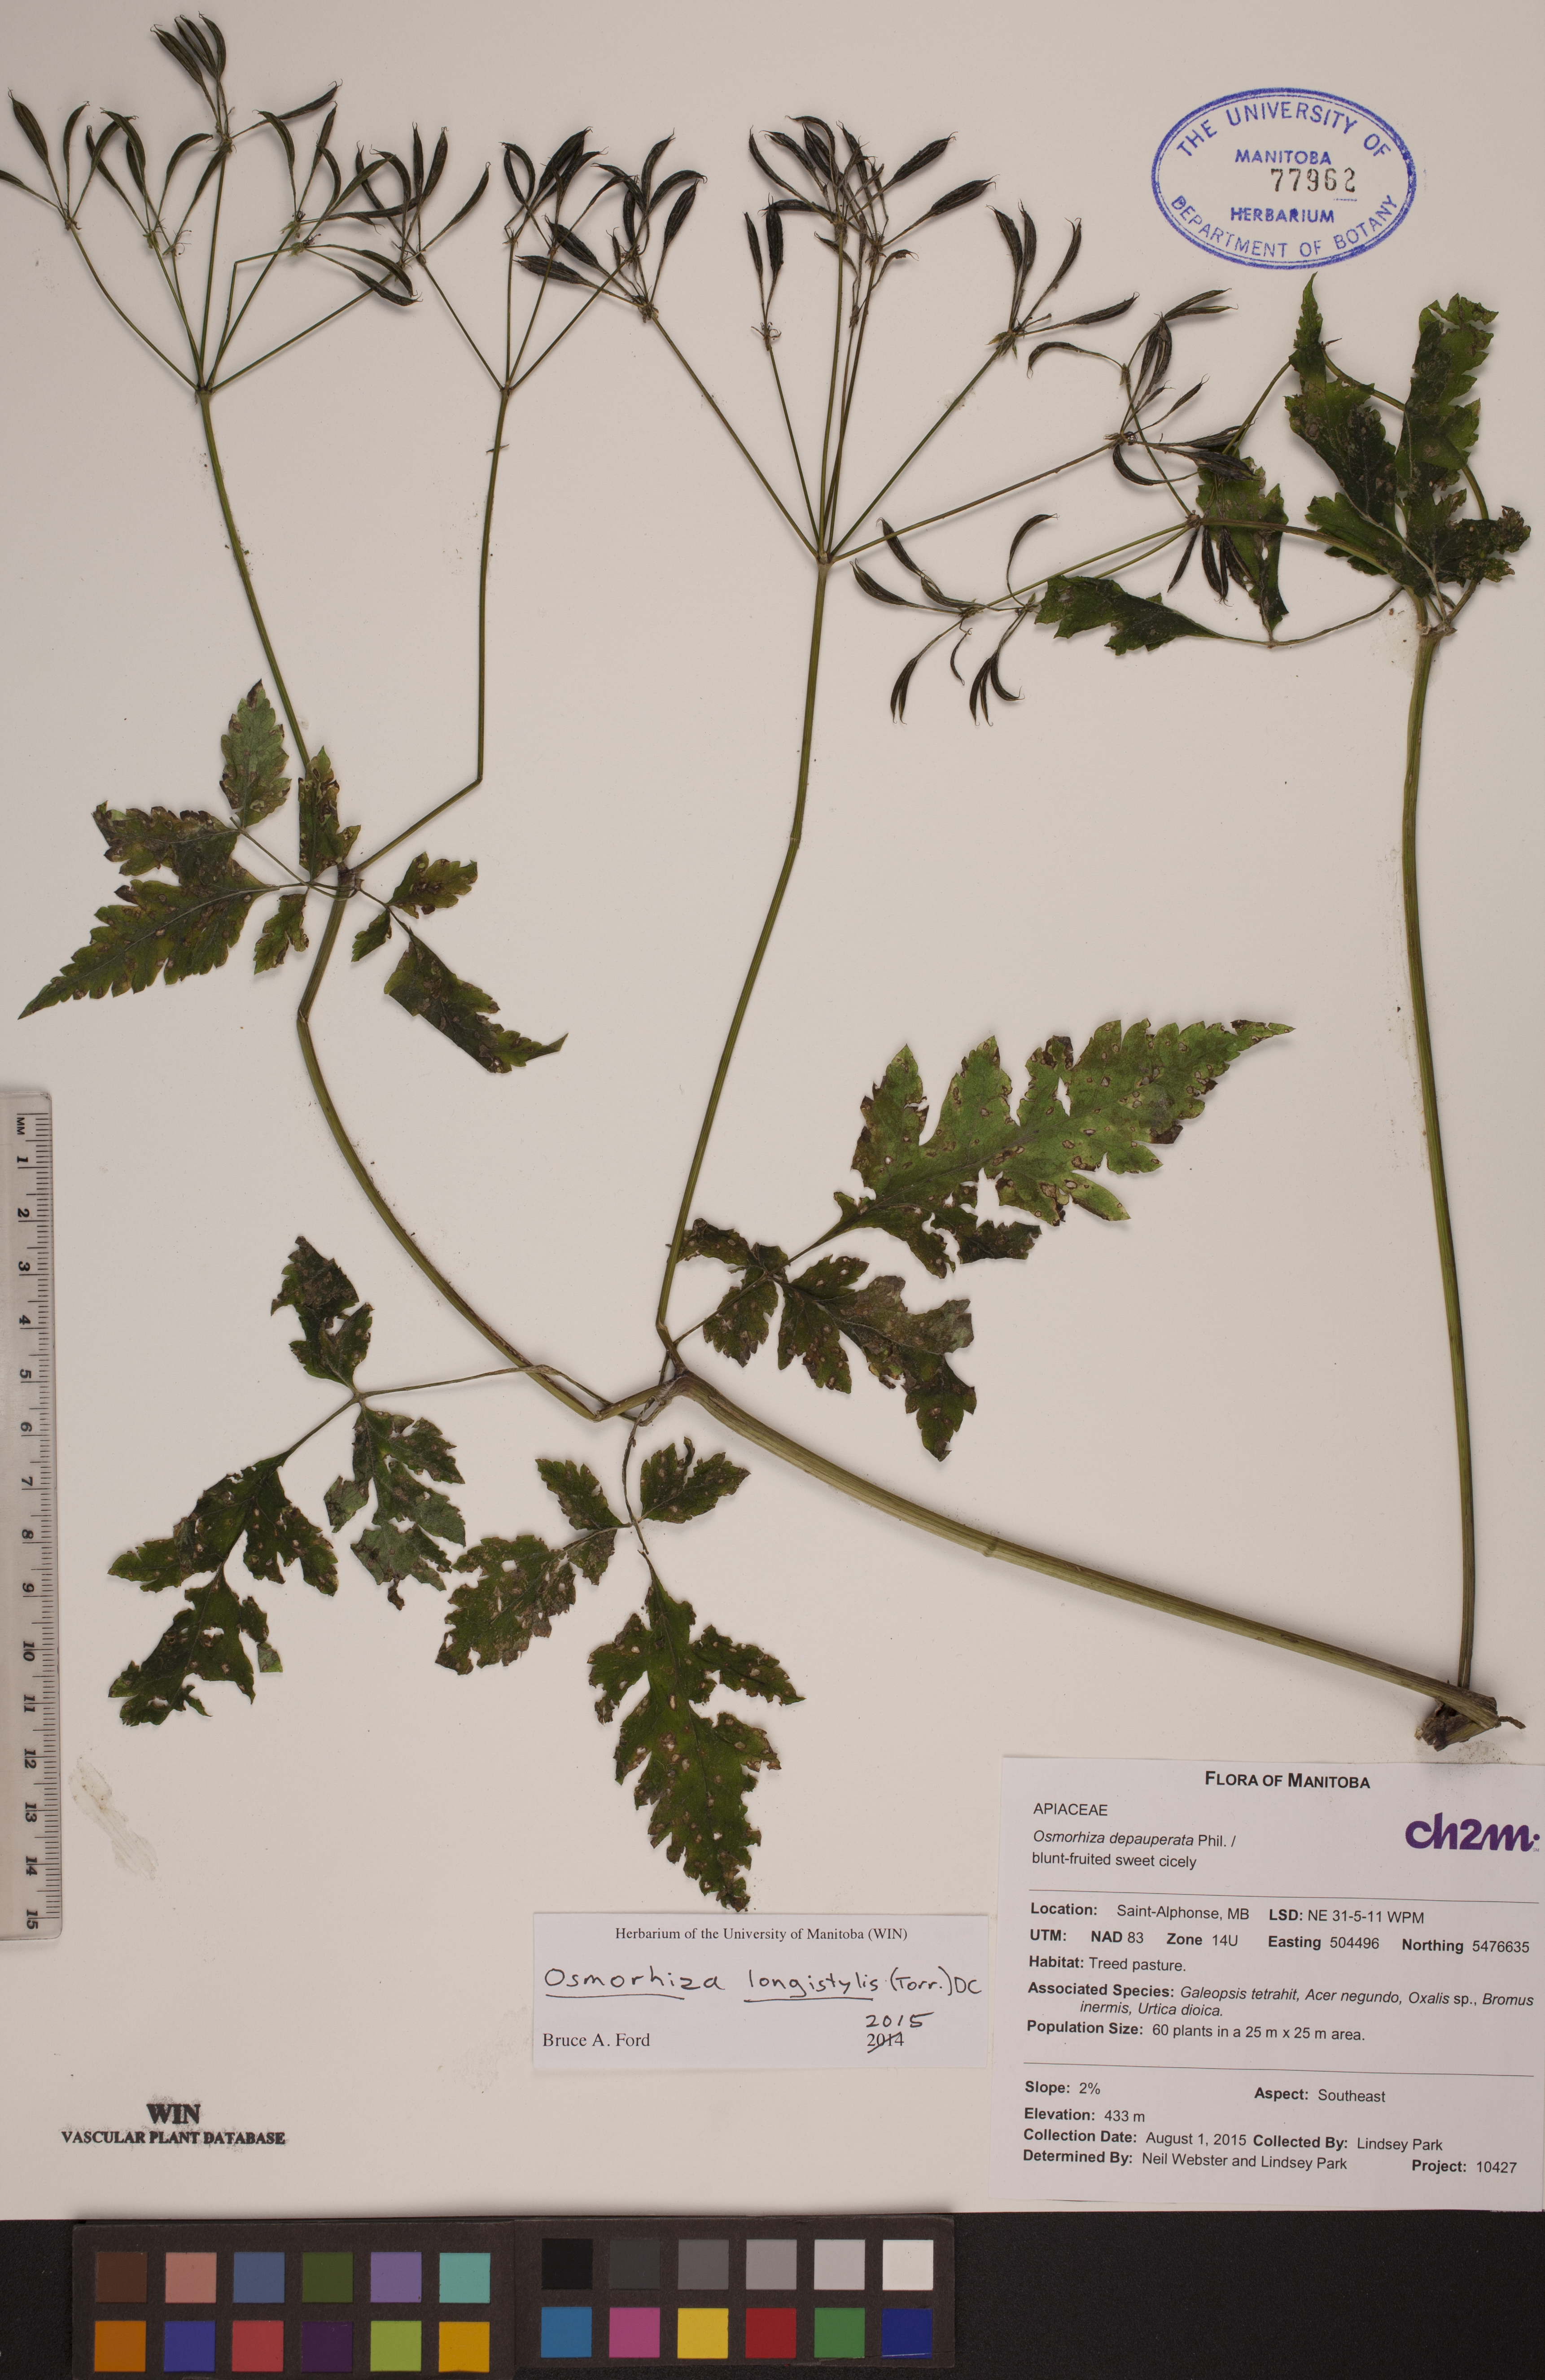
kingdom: Plantae
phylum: Tracheophyta
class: Magnoliopsida
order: Apiales
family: Apiaceae
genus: Osmorhiza
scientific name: Osmorhiza longistylis
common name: Smooth sweet cicely
